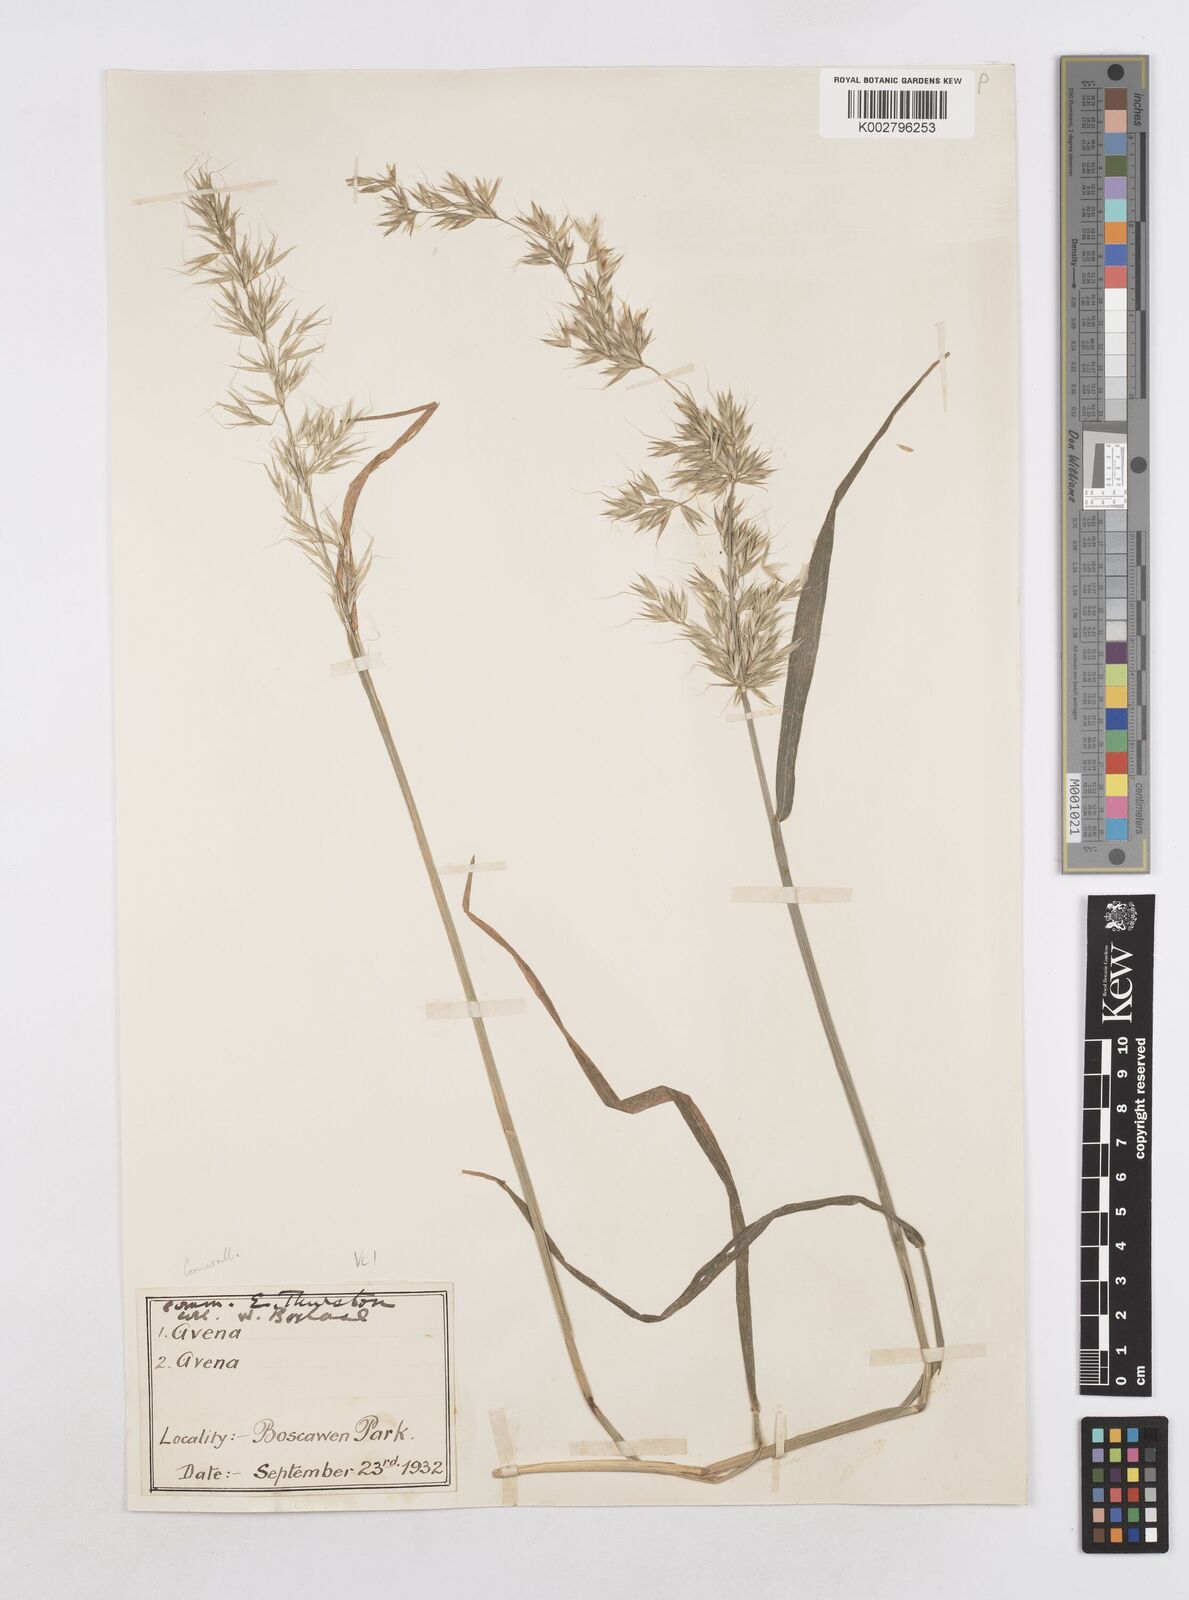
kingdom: Plantae
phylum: Tracheophyta
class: Liliopsida
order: Poales
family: Poaceae
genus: Arrhenatherum
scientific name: Arrhenatherum elatius
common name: Tall oatgrass
